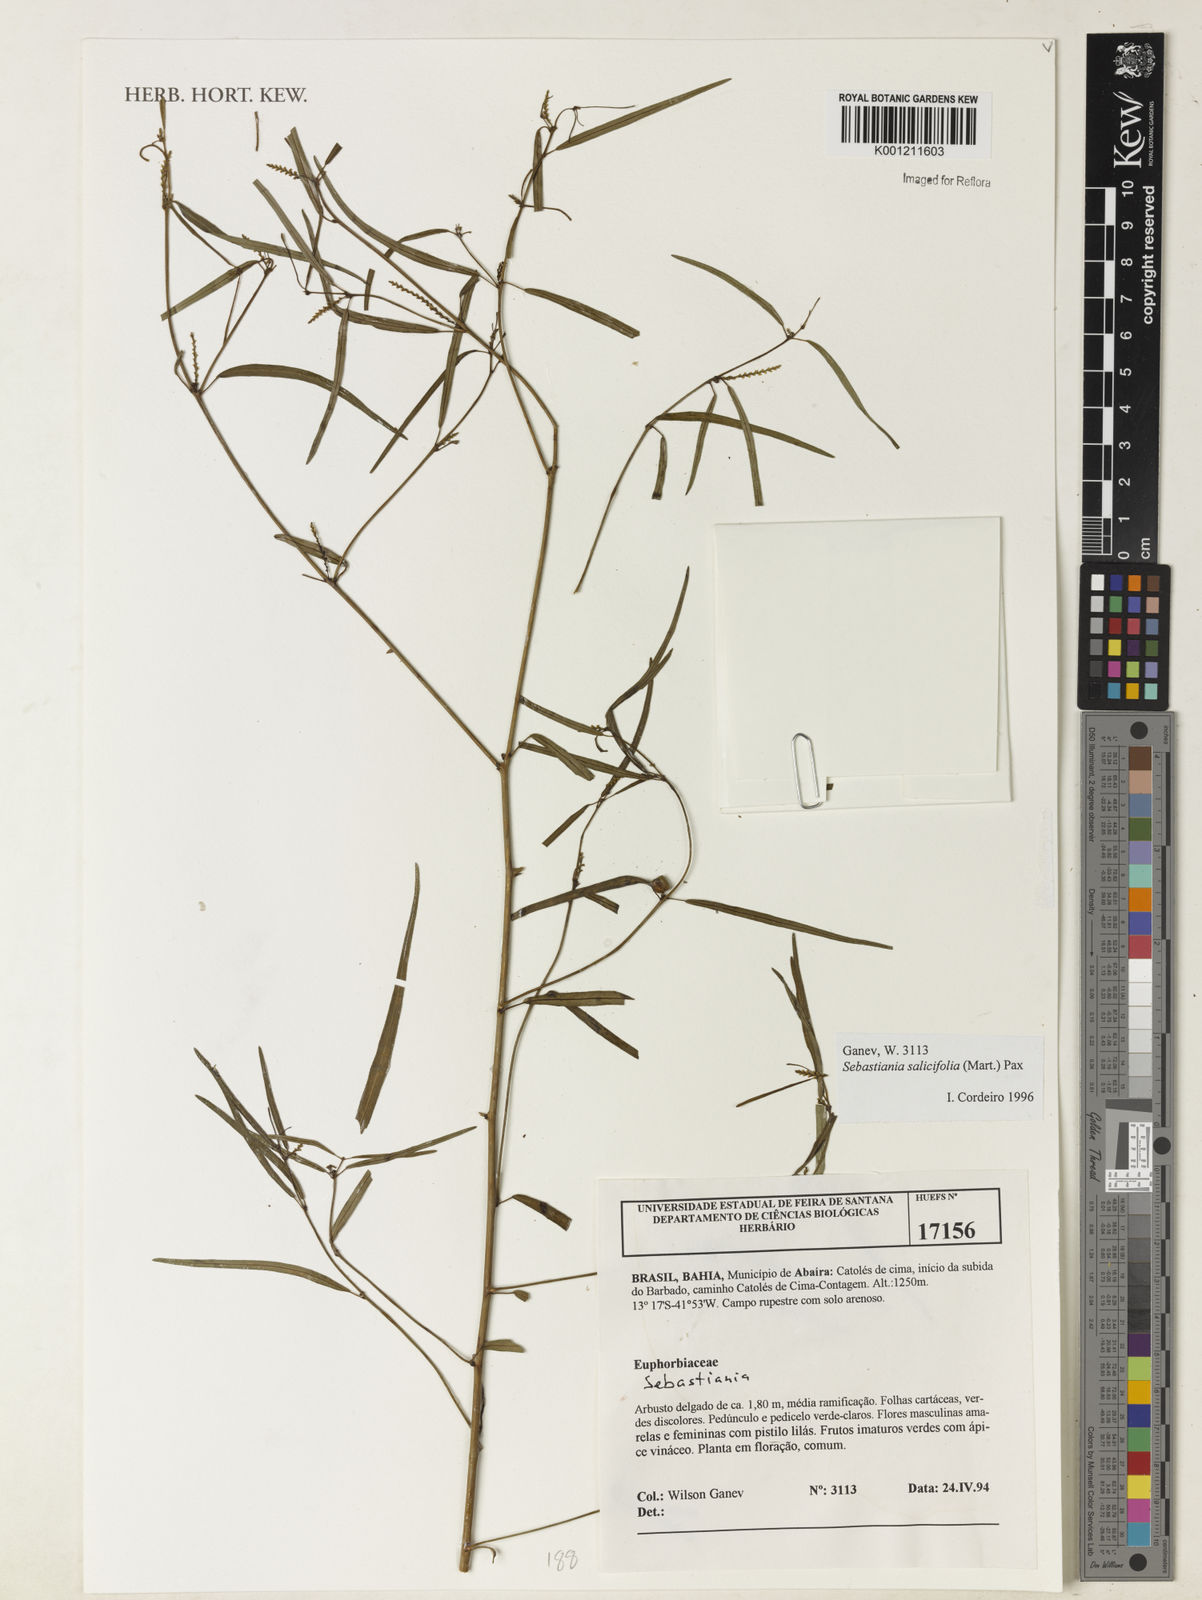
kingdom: Plantae
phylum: Tracheophyta
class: Magnoliopsida
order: Malpighiales
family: Euphorbiaceae
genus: Microstachys
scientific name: Microstachys
